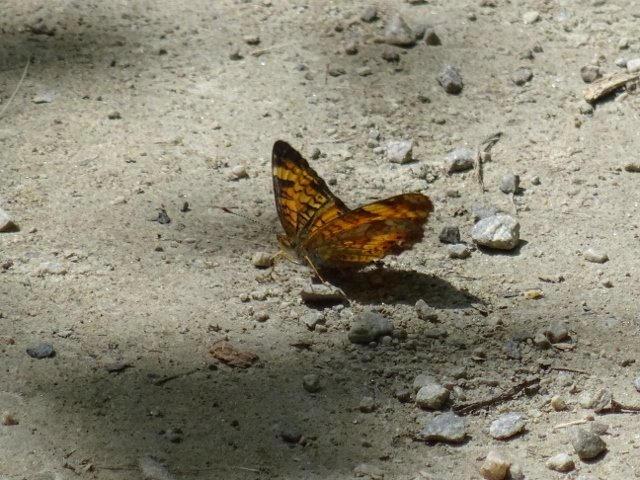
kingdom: Animalia
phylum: Arthropoda
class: Insecta
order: Lepidoptera
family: Nymphalidae
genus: Phyciodes
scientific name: Phyciodes tharos
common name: Northern Crescent
